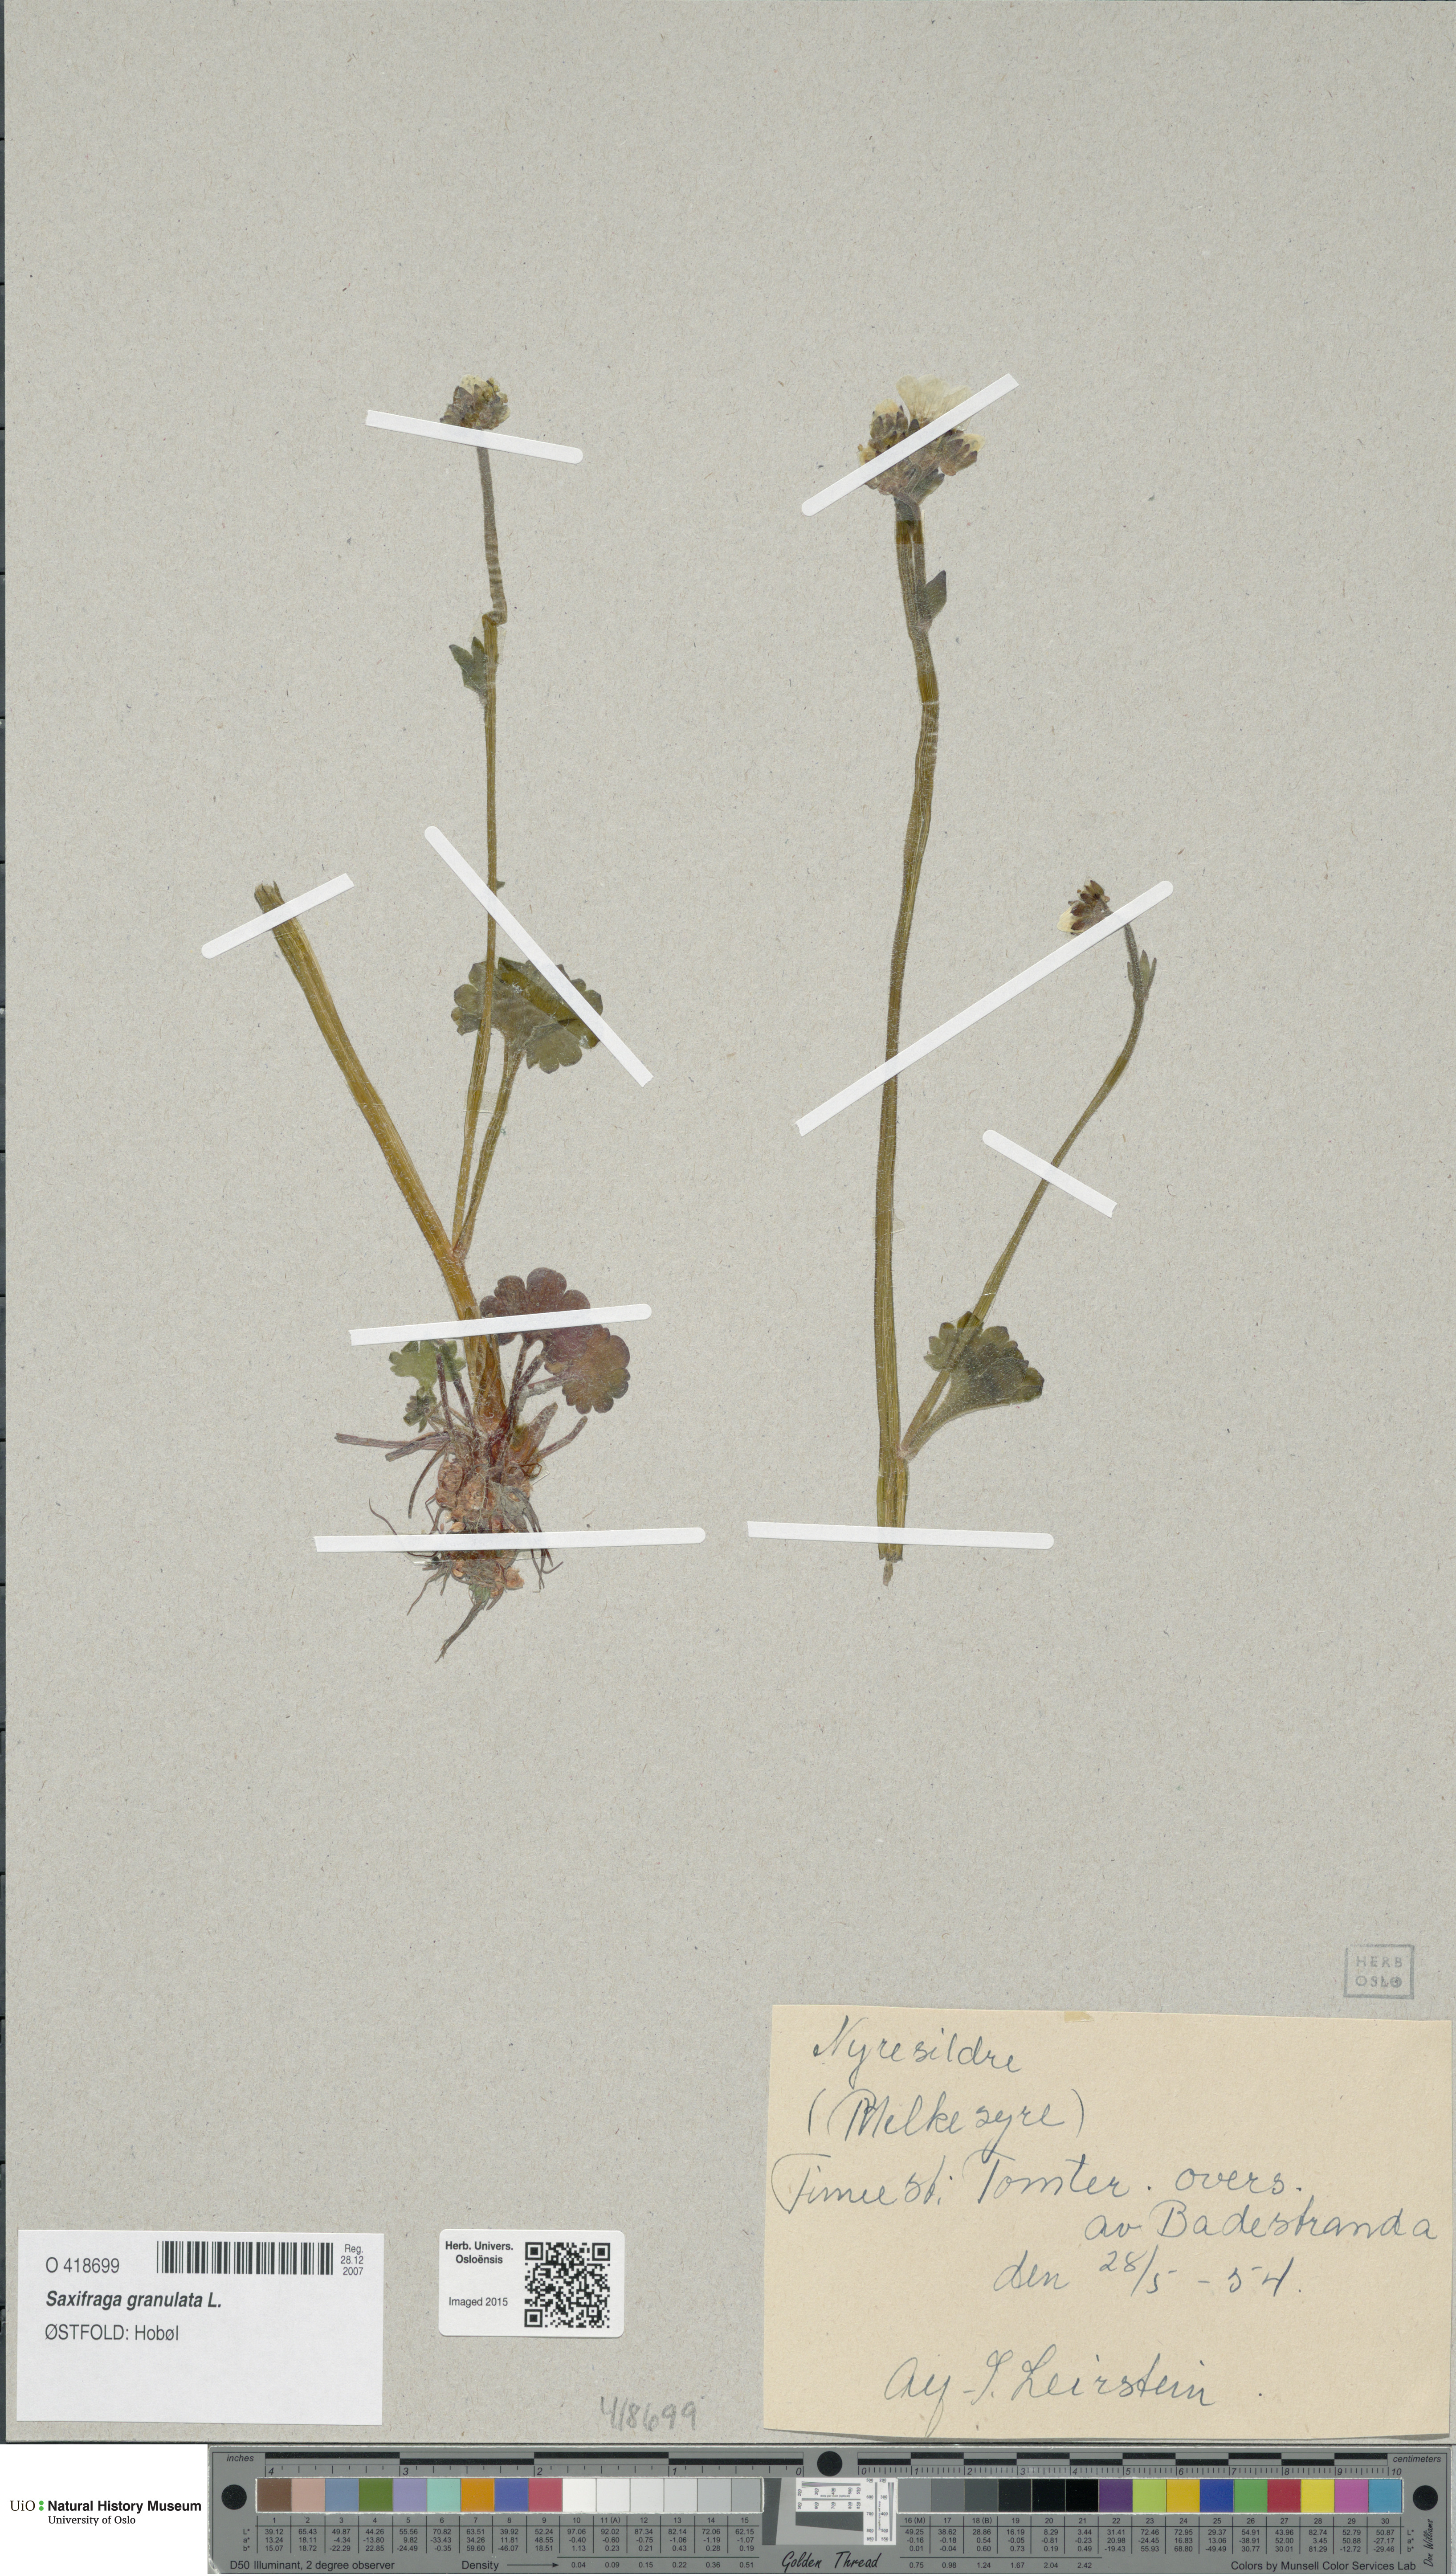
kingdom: Plantae
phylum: Tracheophyta
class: Magnoliopsida
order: Saxifragales
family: Saxifragaceae
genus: Saxifraga
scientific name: Saxifraga granulata
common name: Meadow saxifrage
